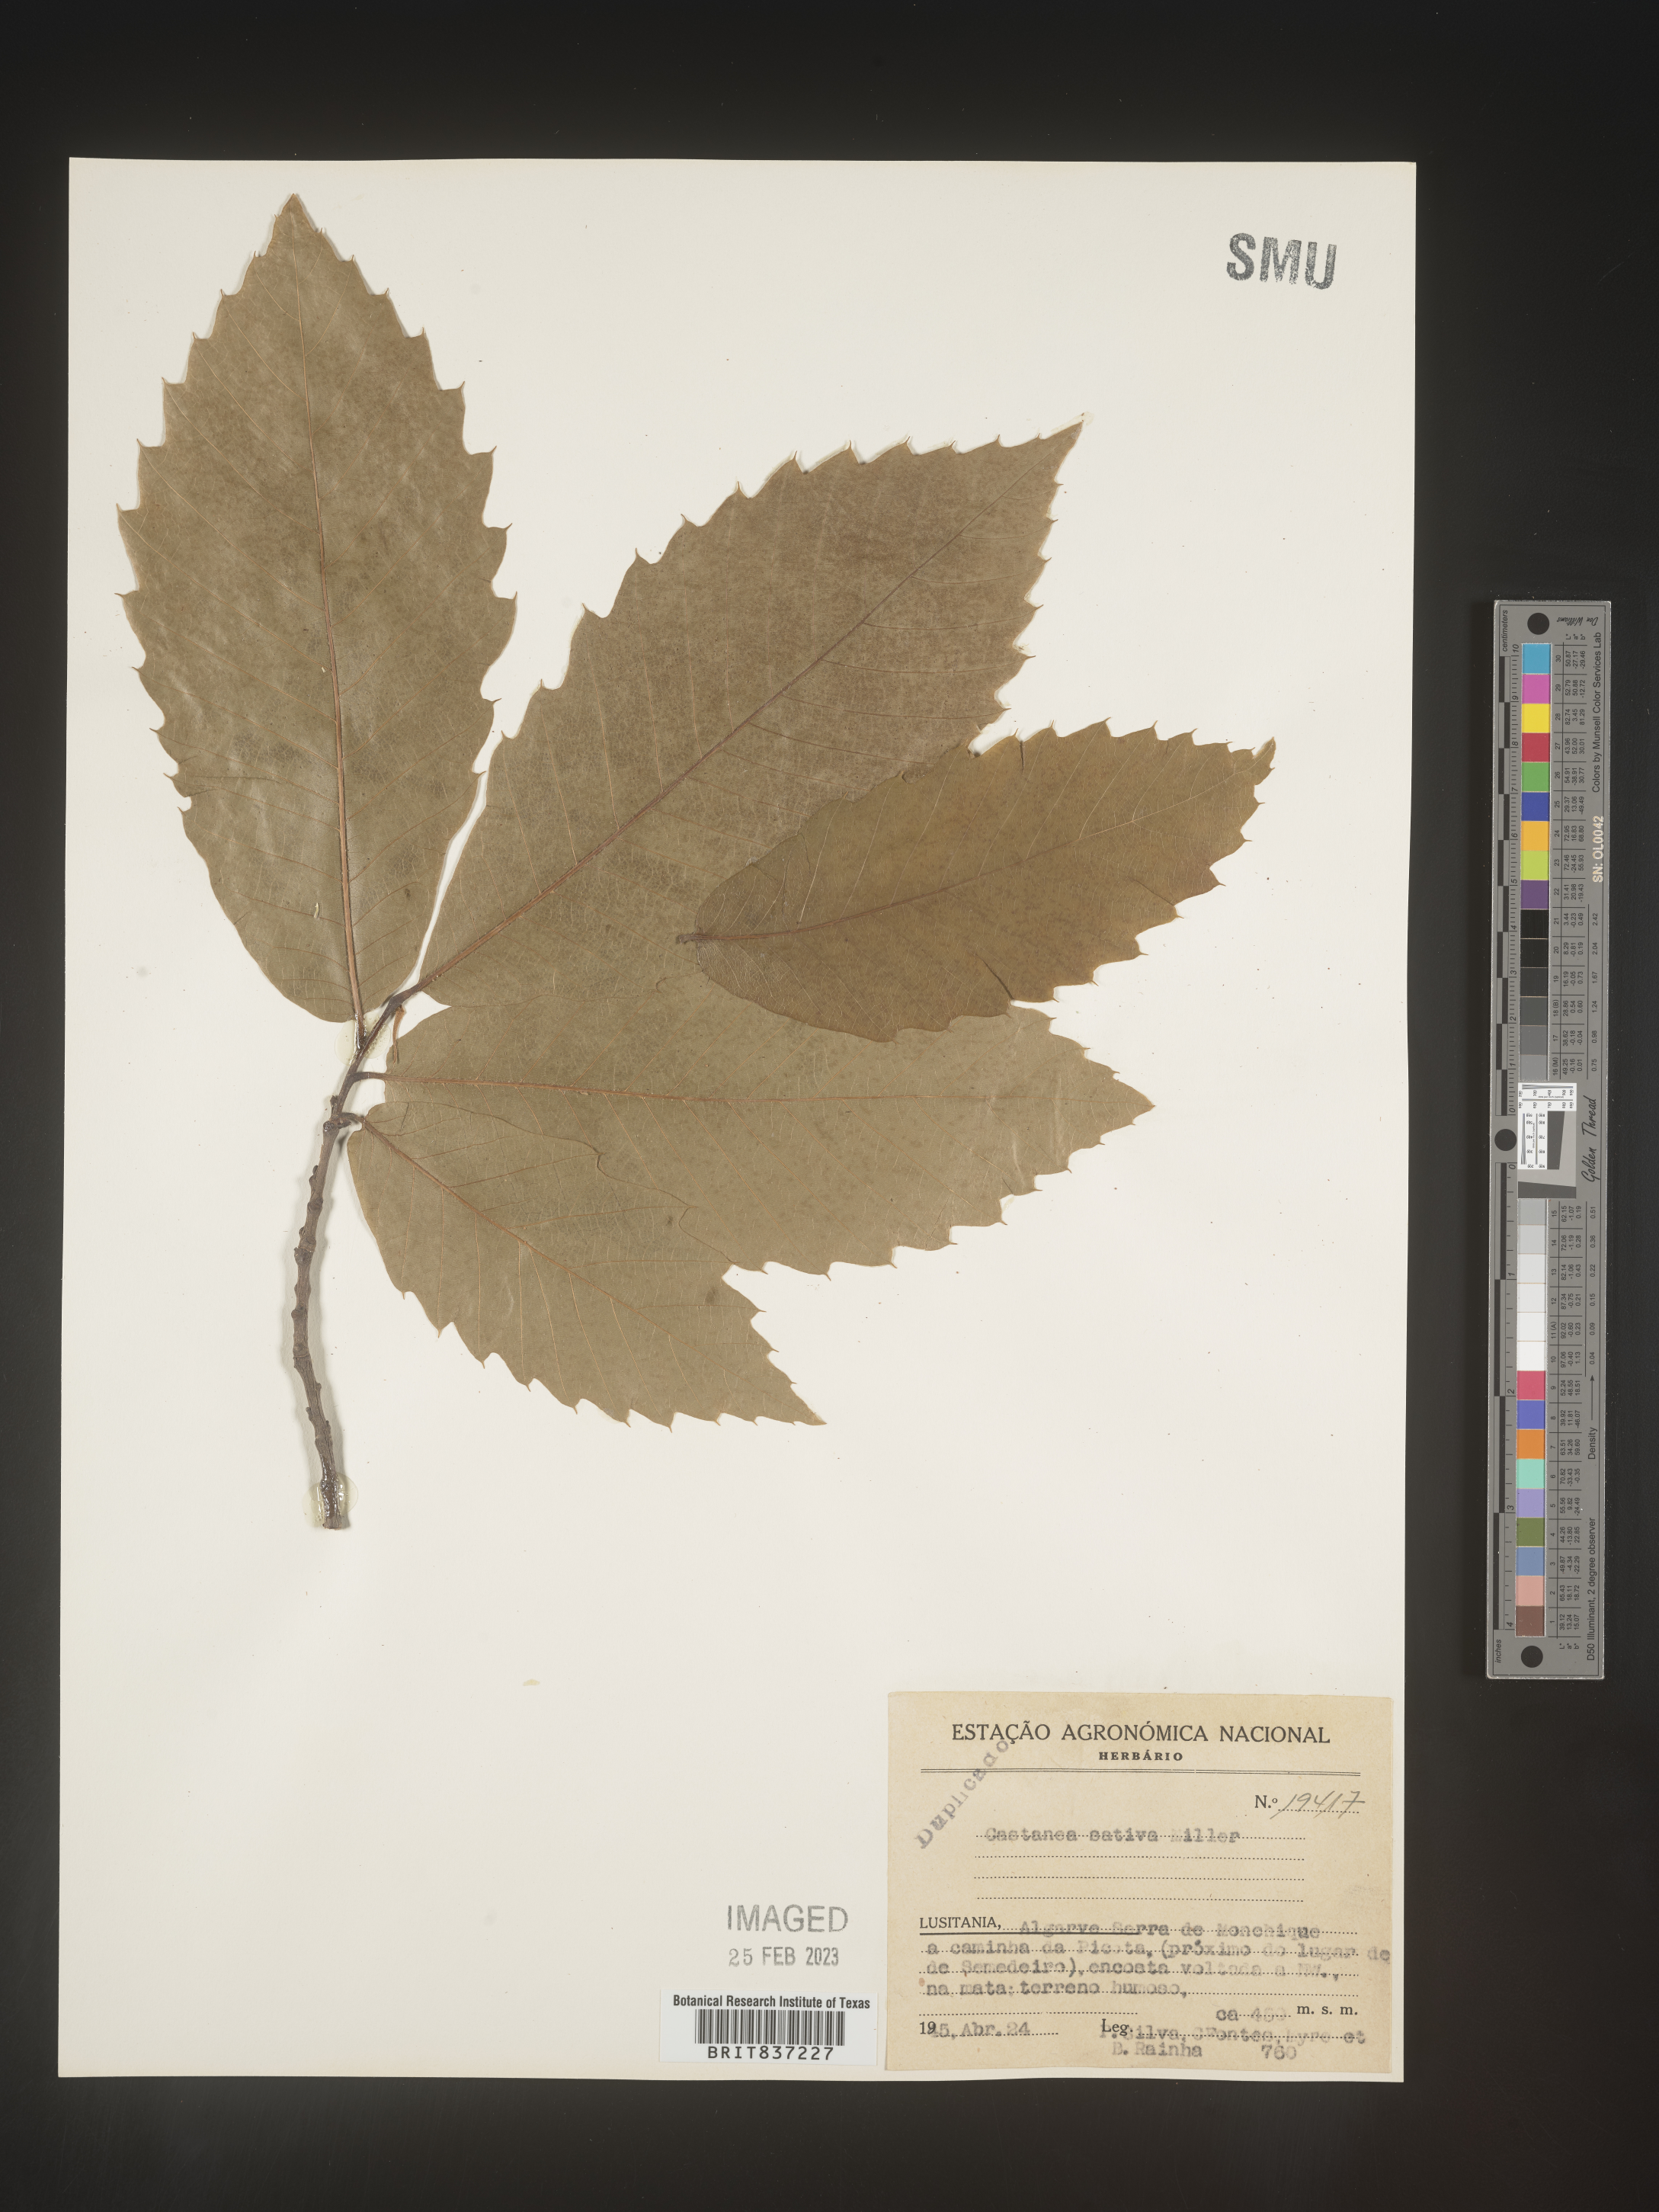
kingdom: Plantae
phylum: Tracheophyta
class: Magnoliopsida
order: Fagales
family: Fagaceae
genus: Castanea
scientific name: Castanea
